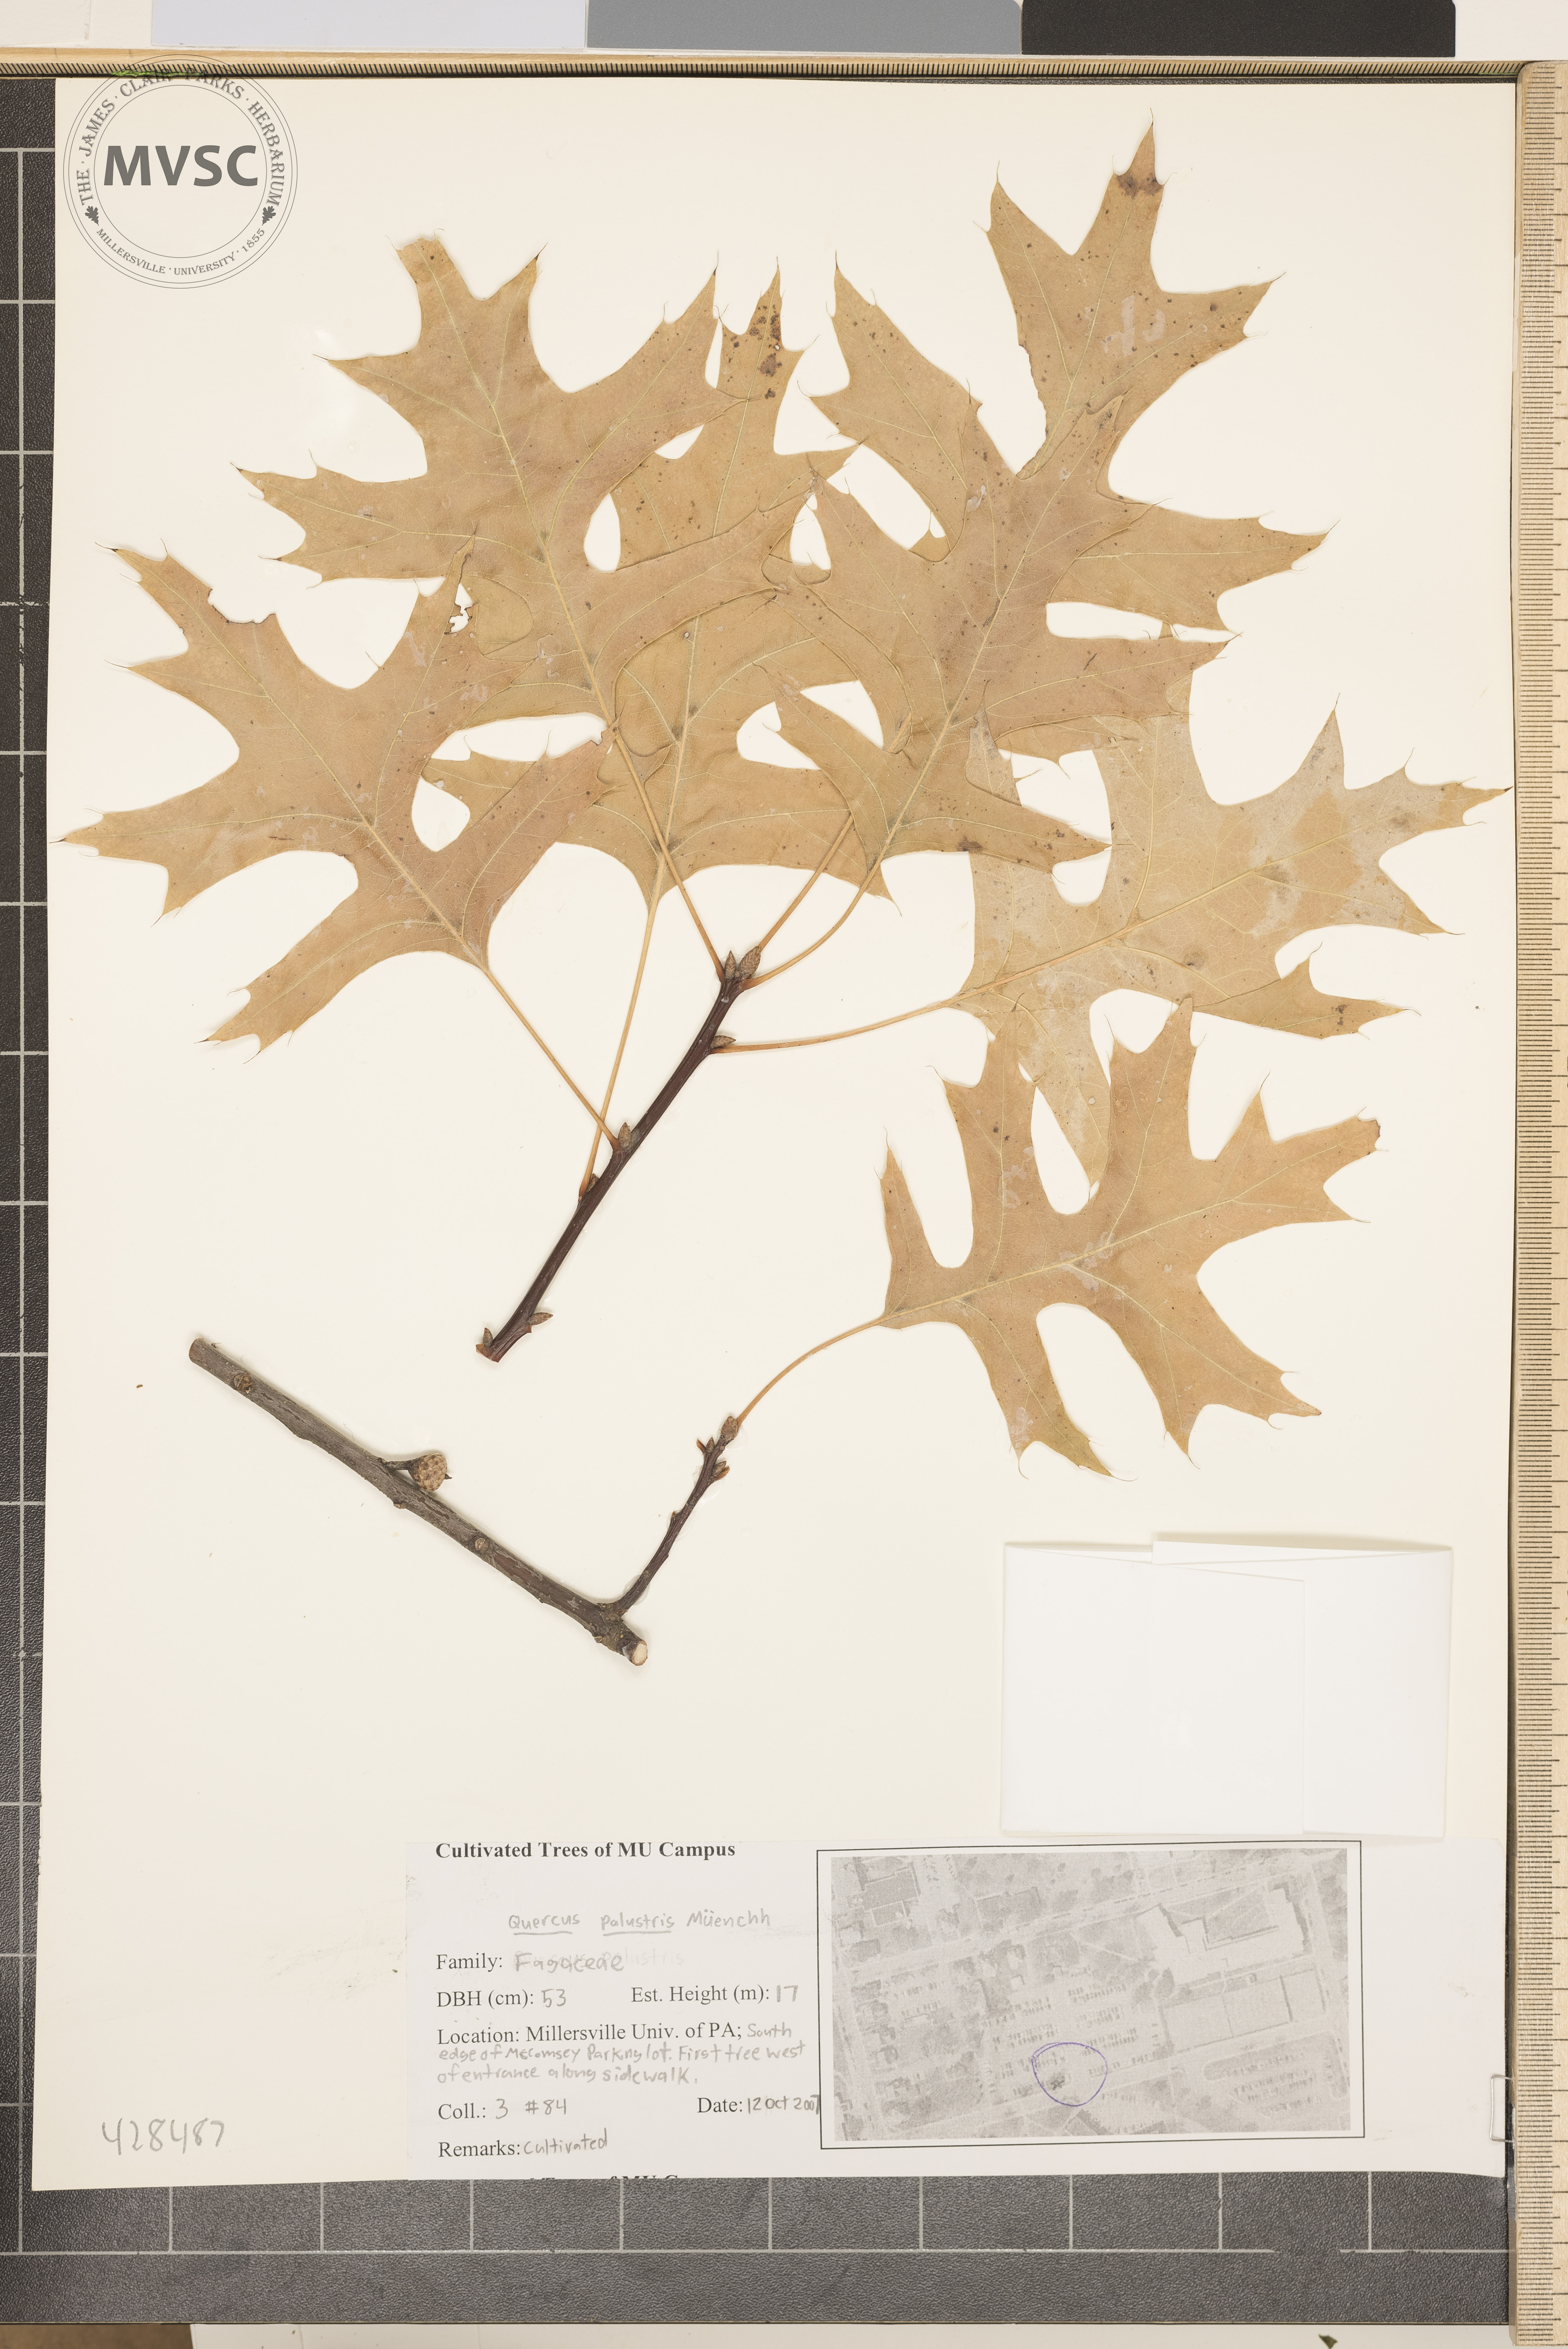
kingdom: Plantae
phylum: Tracheophyta
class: Magnoliopsida
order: Fagales
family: Fagaceae
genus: Quercus
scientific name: Quercus palustris
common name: Pin Oak
